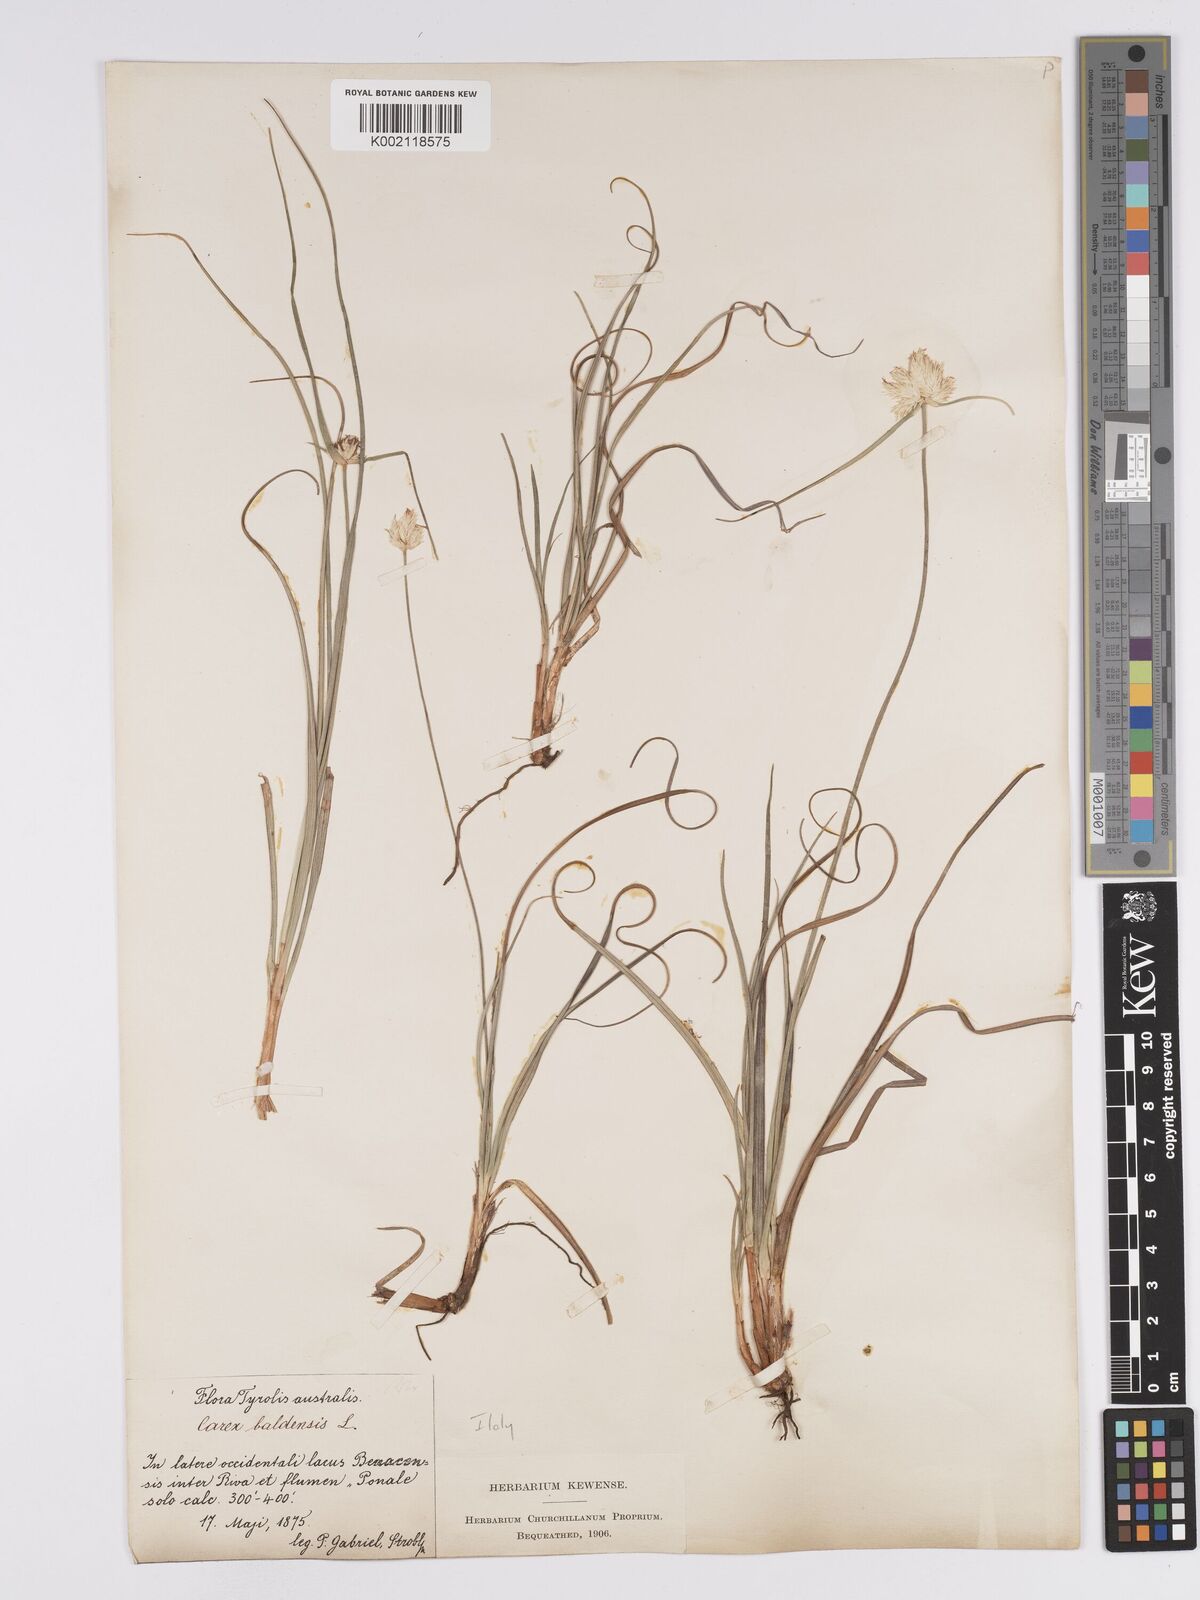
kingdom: Plantae
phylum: Tracheophyta
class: Liliopsida
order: Poales
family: Cyperaceae
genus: Carex
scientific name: Carex baldensis
